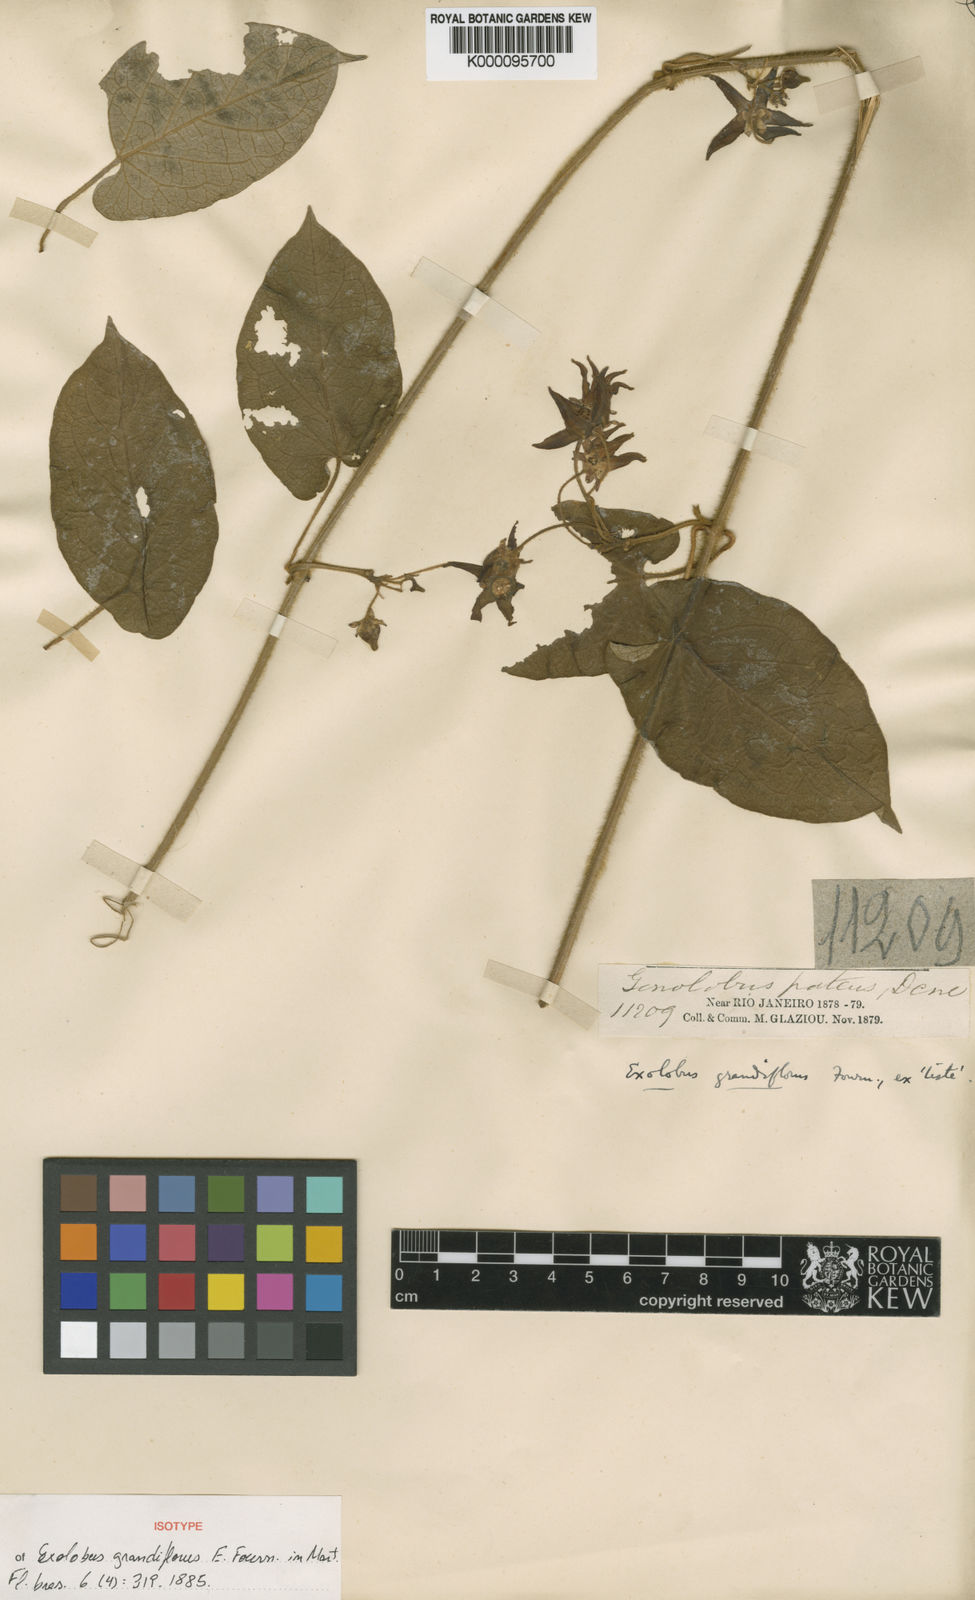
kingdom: Plantae
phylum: Tracheophyta
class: Magnoliopsida
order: Gentianales
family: Apocynaceae
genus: Gonolobus
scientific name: Gonolobus
